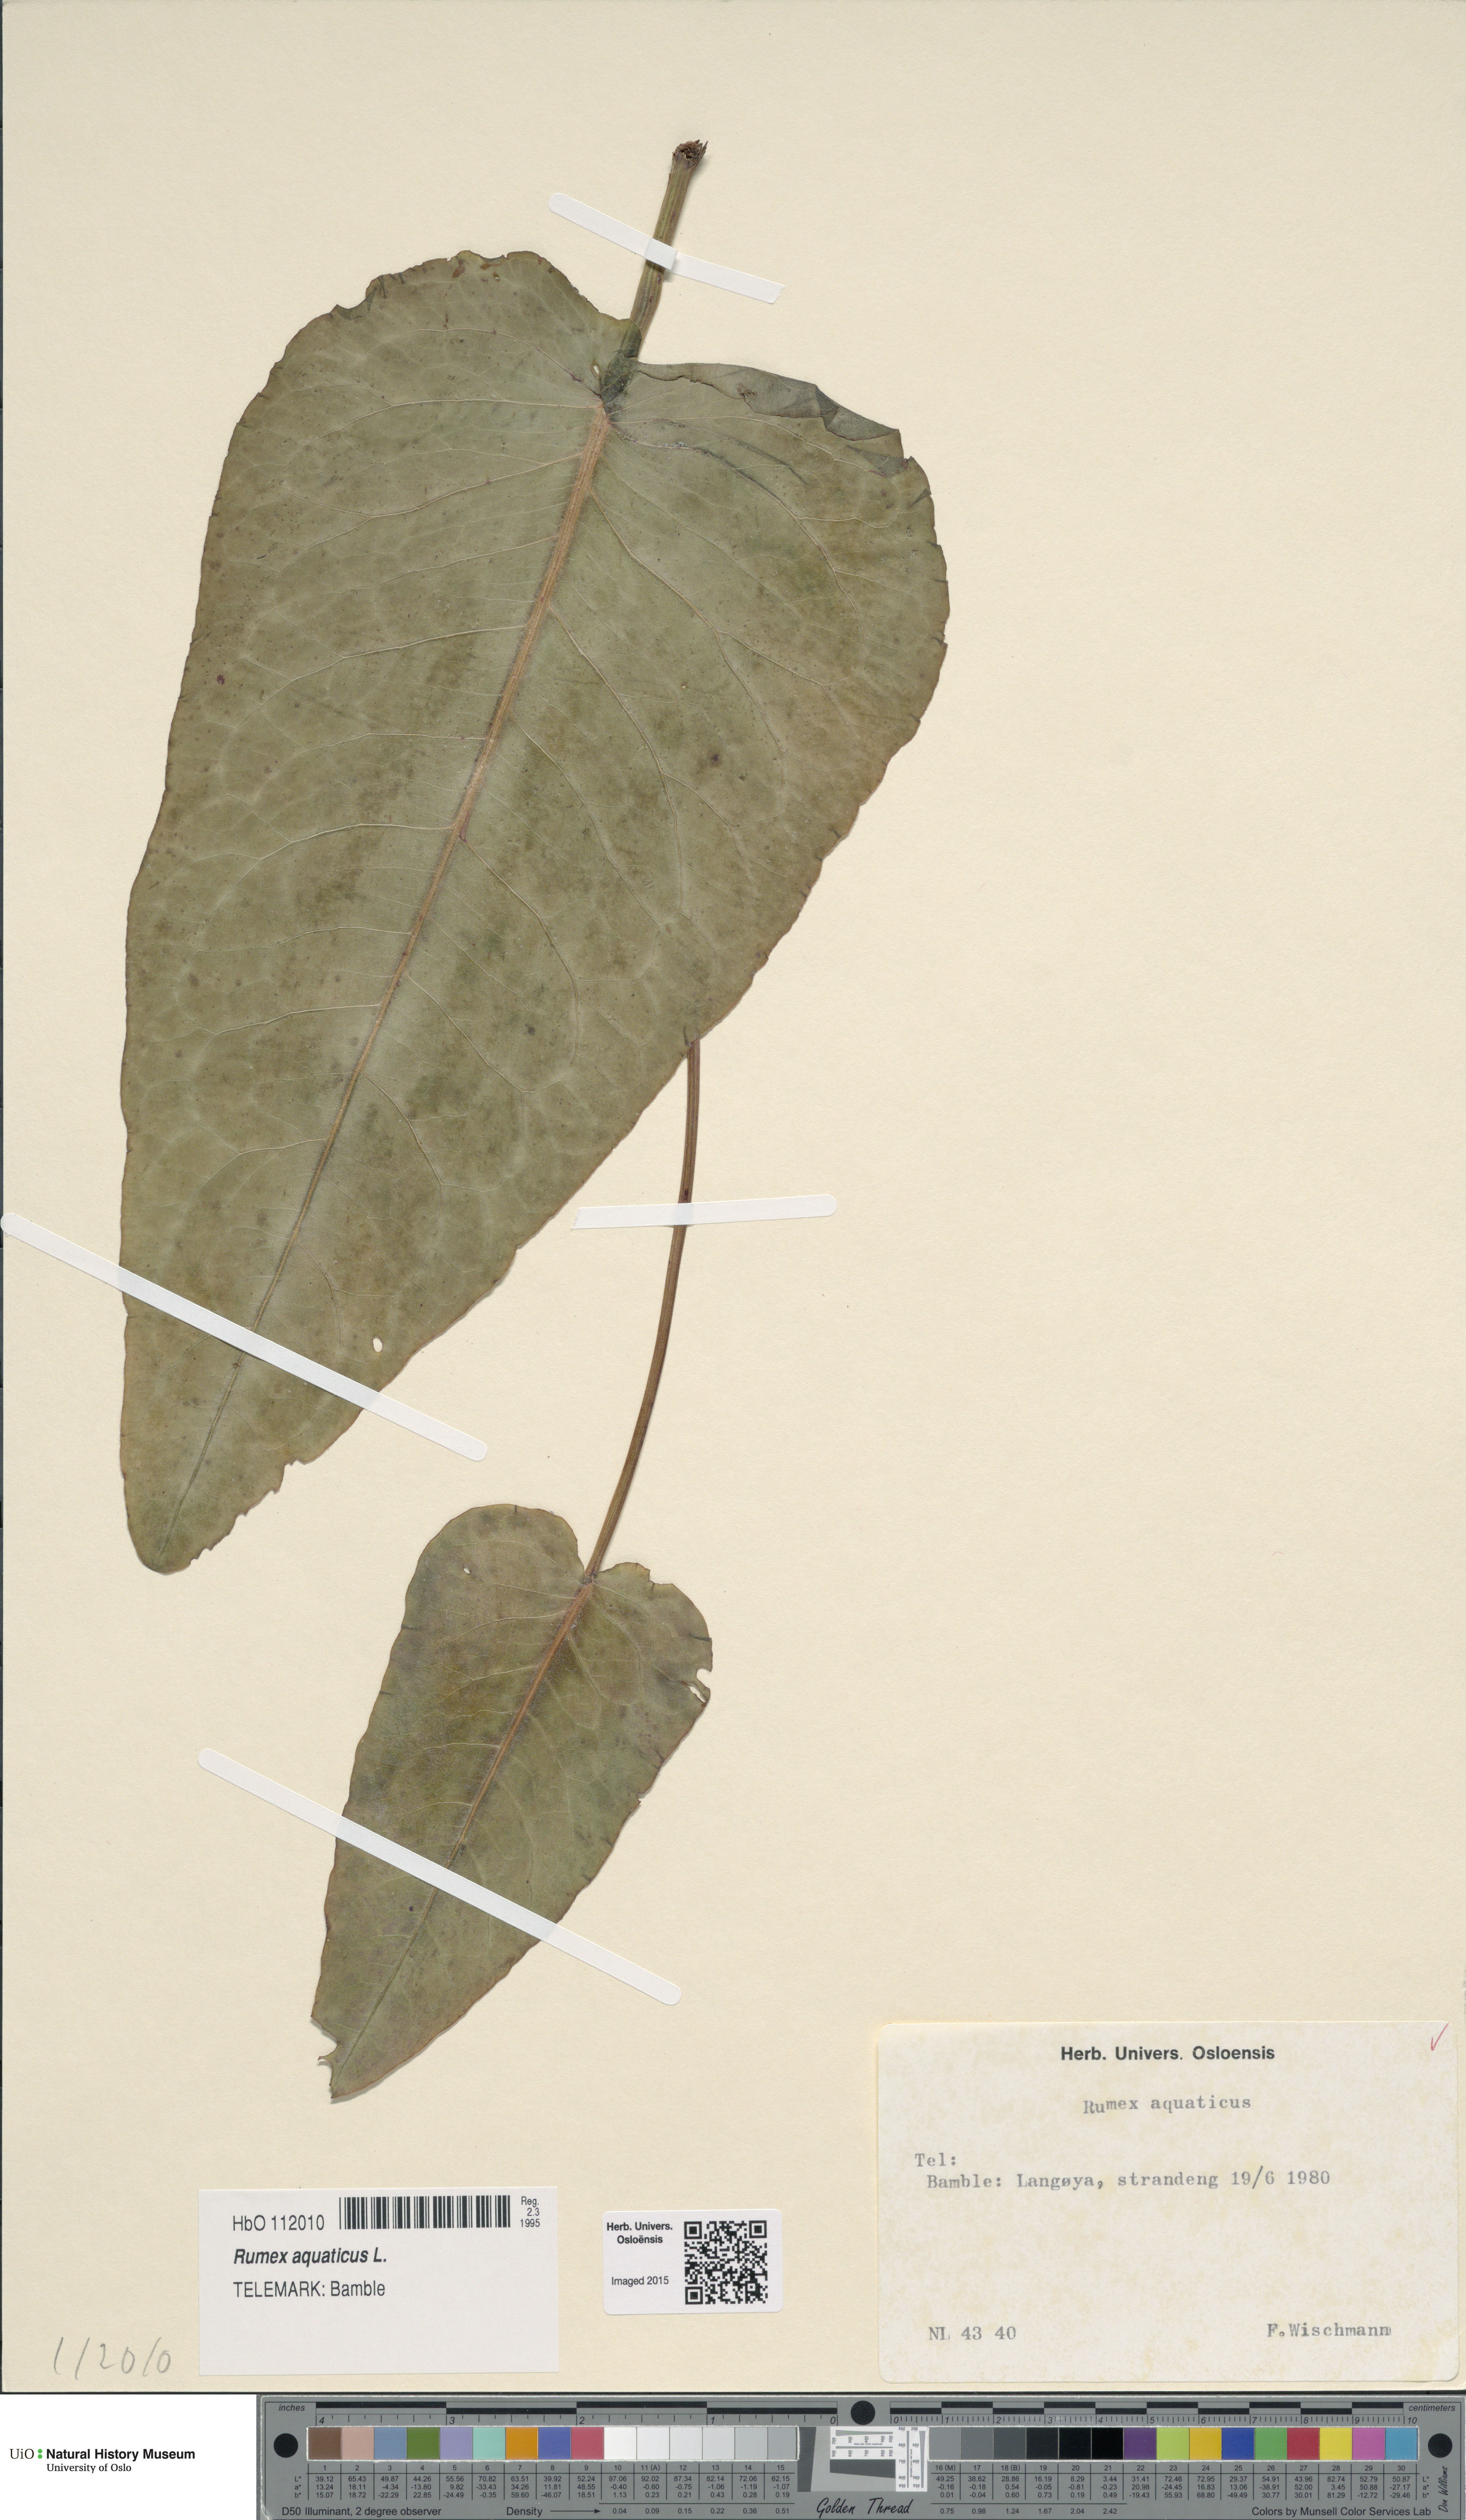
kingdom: Plantae
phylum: Tracheophyta
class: Magnoliopsida
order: Caryophyllales
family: Polygonaceae
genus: Rumex
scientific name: Rumex aquaticus
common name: Scottish dock
